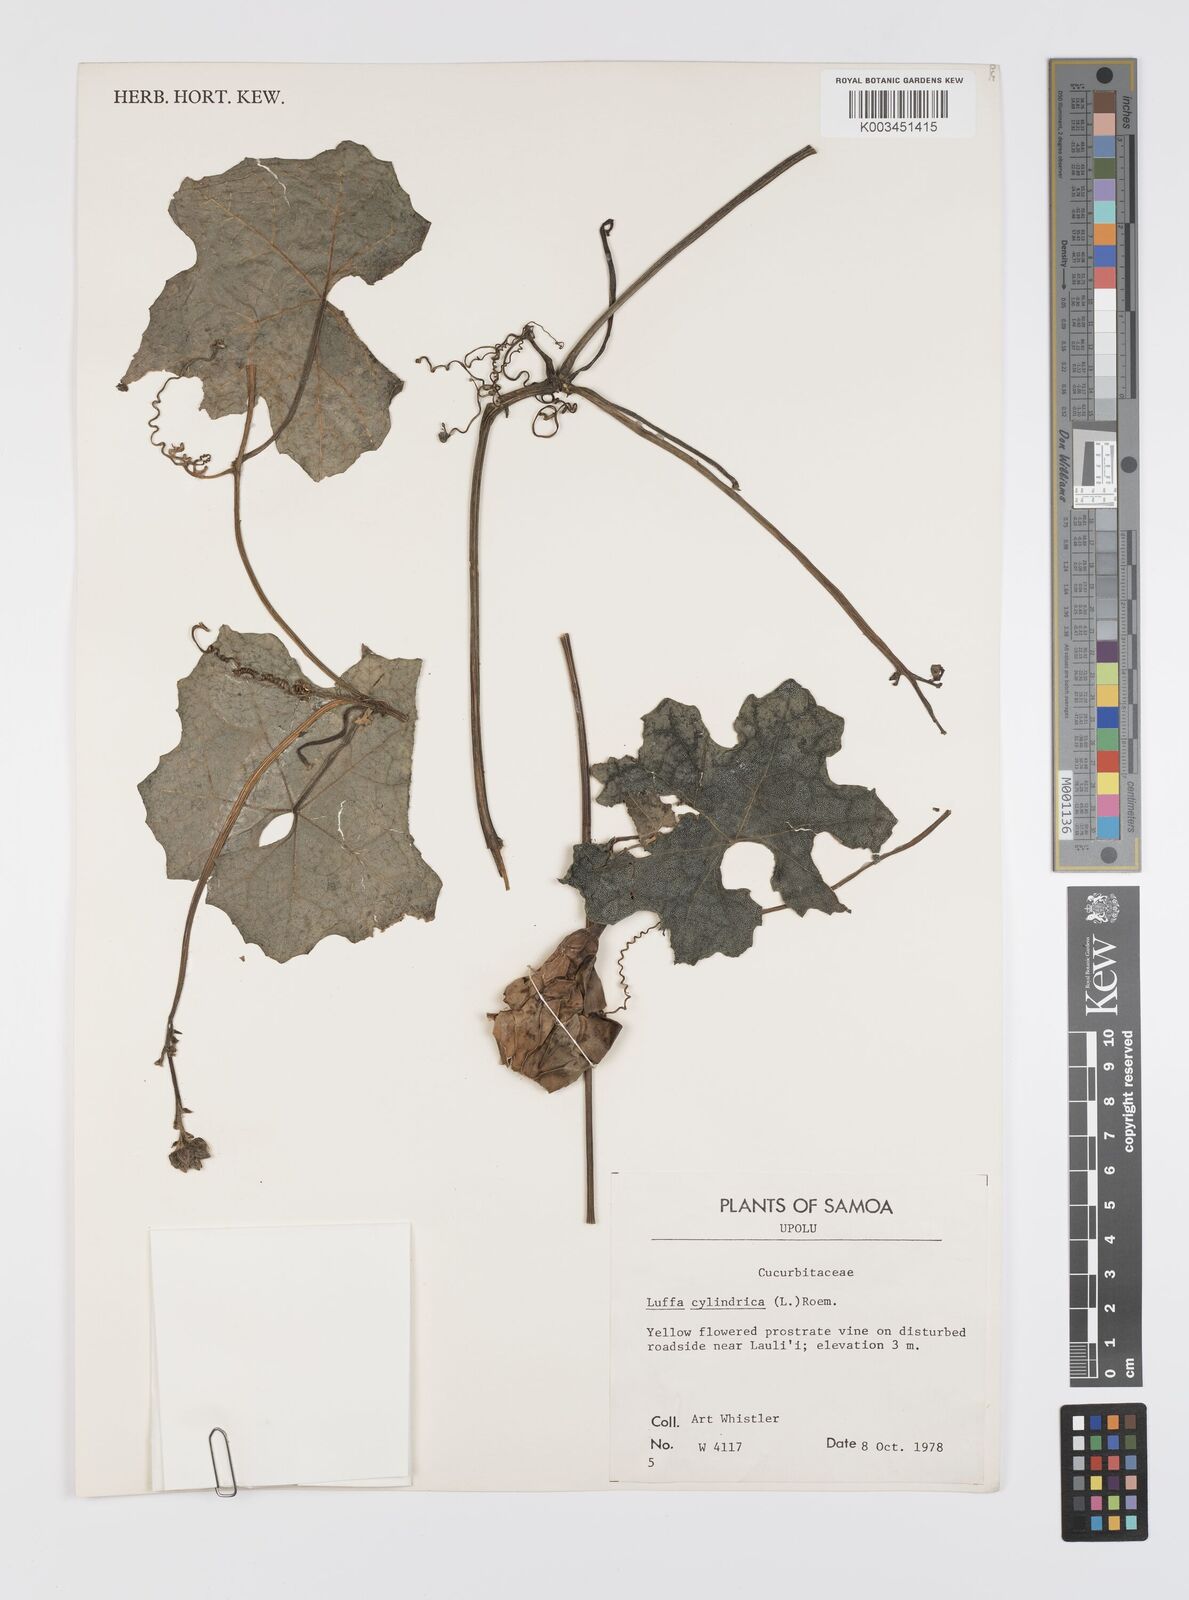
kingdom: Plantae
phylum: Tracheophyta
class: Magnoliopsida
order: Cucurbitales
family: Cucurbitaceae
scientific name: Cucurbitaceae
